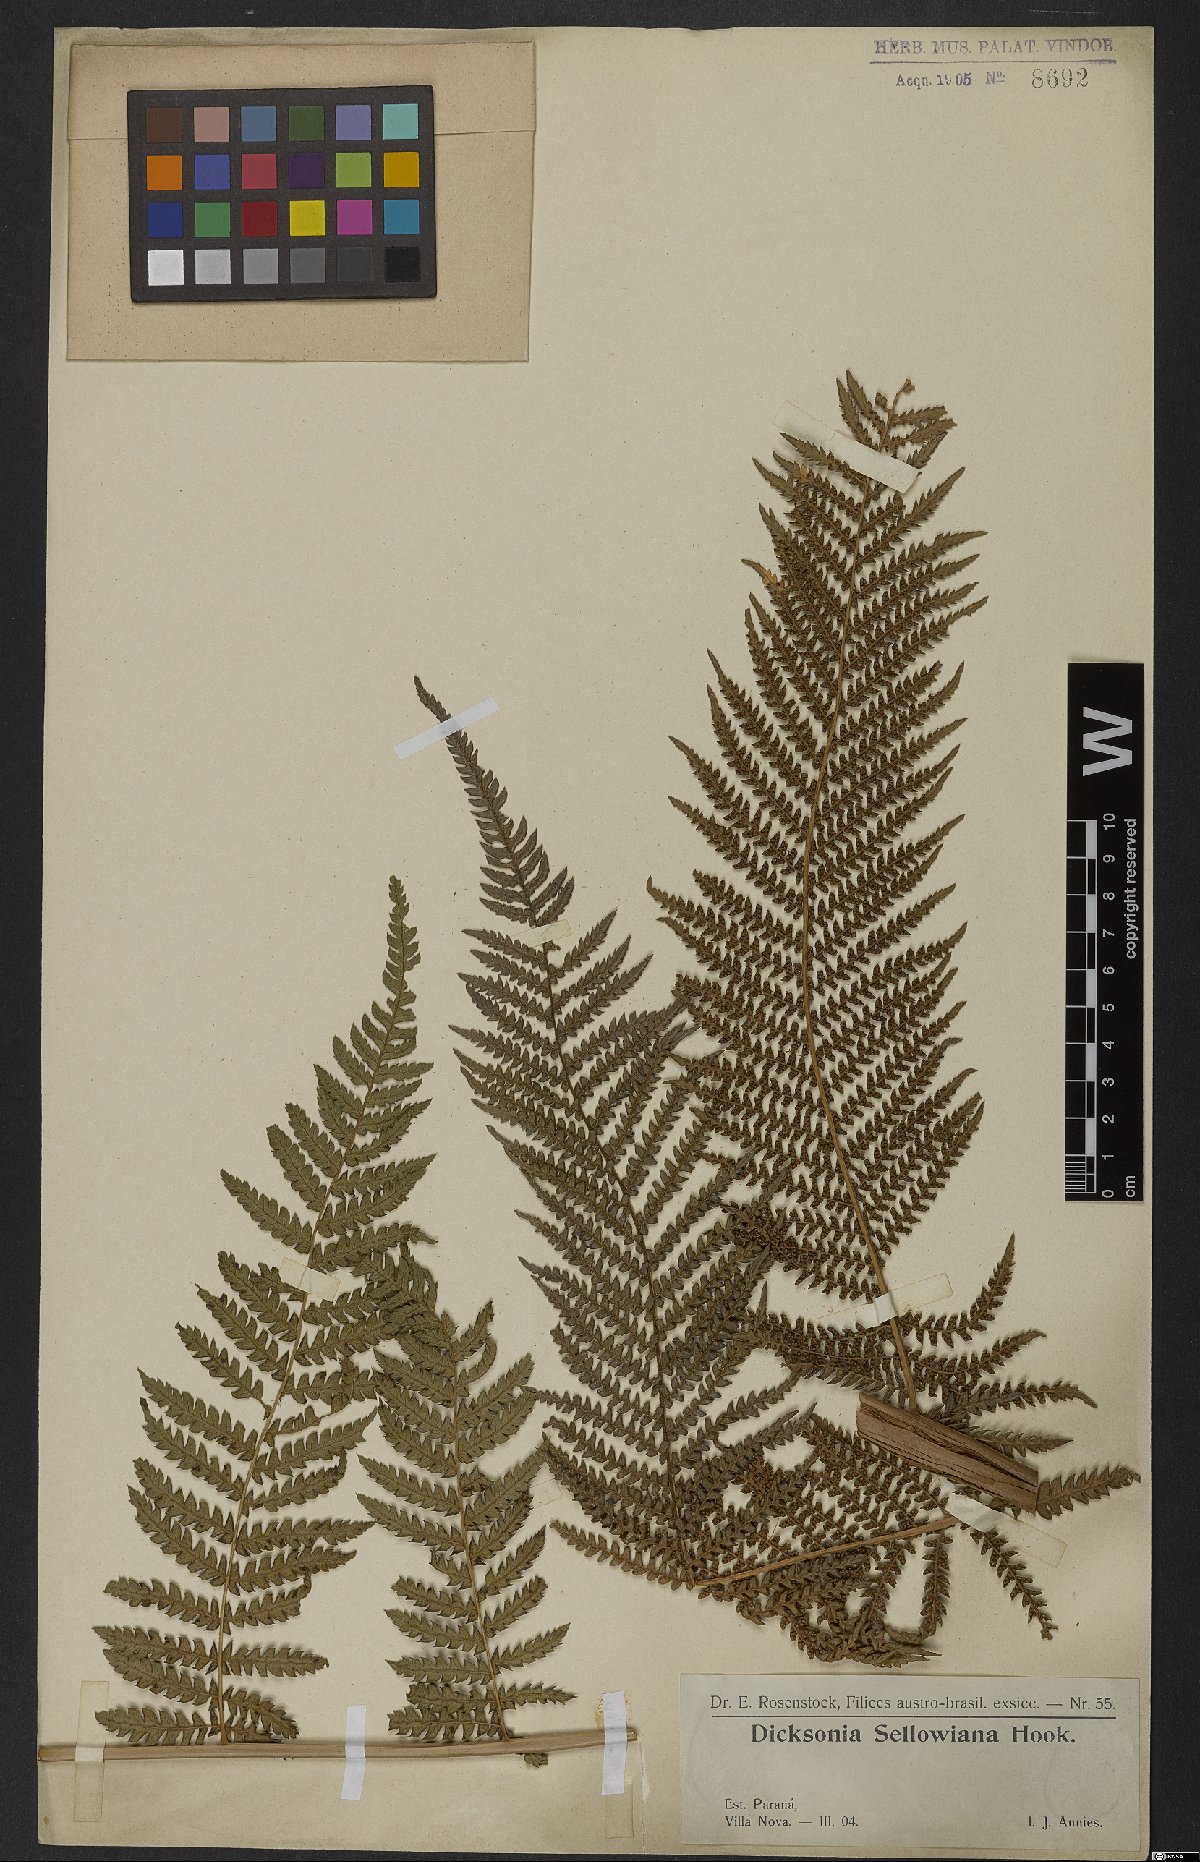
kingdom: Plantae
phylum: Tracheophyta
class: Polypodiopsida
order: Cyatheales
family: Dicksoniaceae
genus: Dicksonia
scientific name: Dicksonia sellowiana
